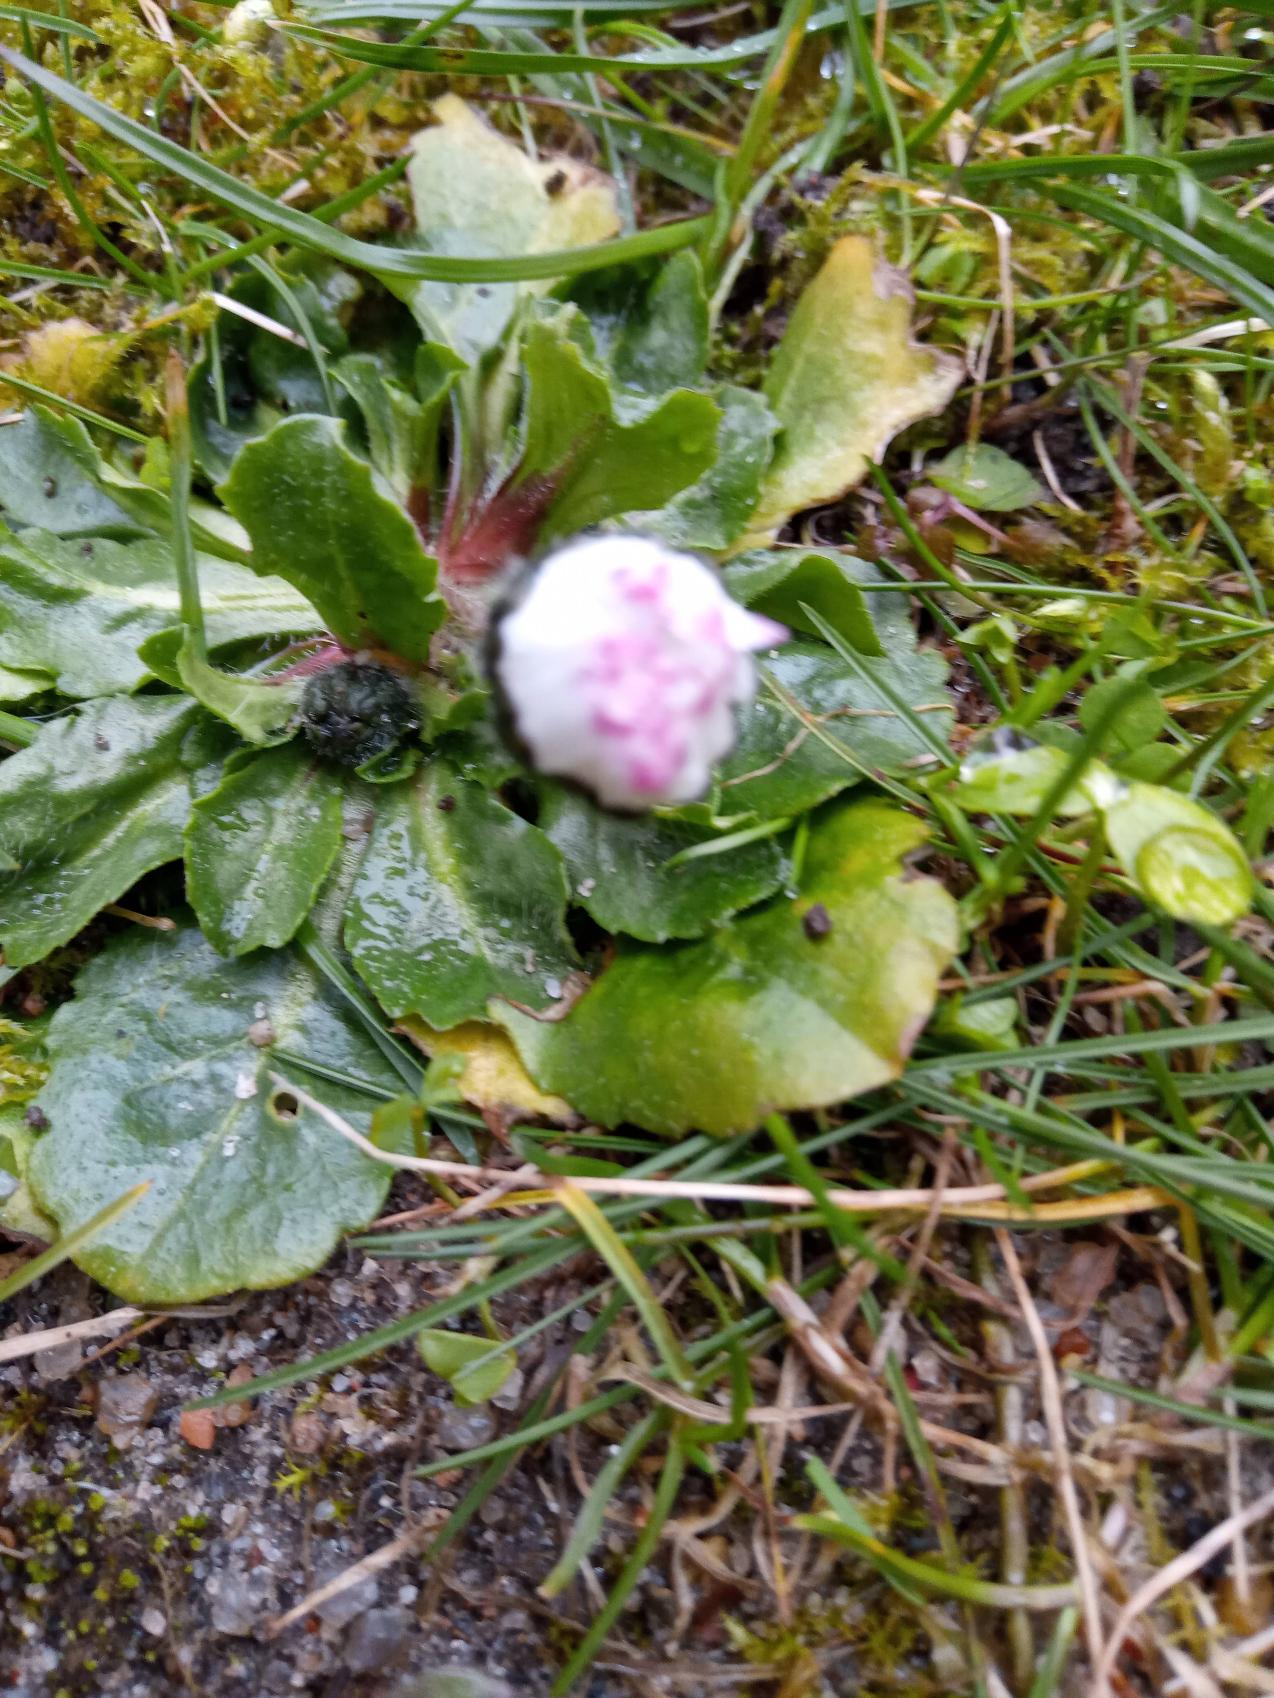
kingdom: Plantae
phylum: Tracheophyta
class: Magnoliopsida
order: Asterales
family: Asteraceae
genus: Bellis
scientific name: Bellis perennis
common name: Tusindfryd
